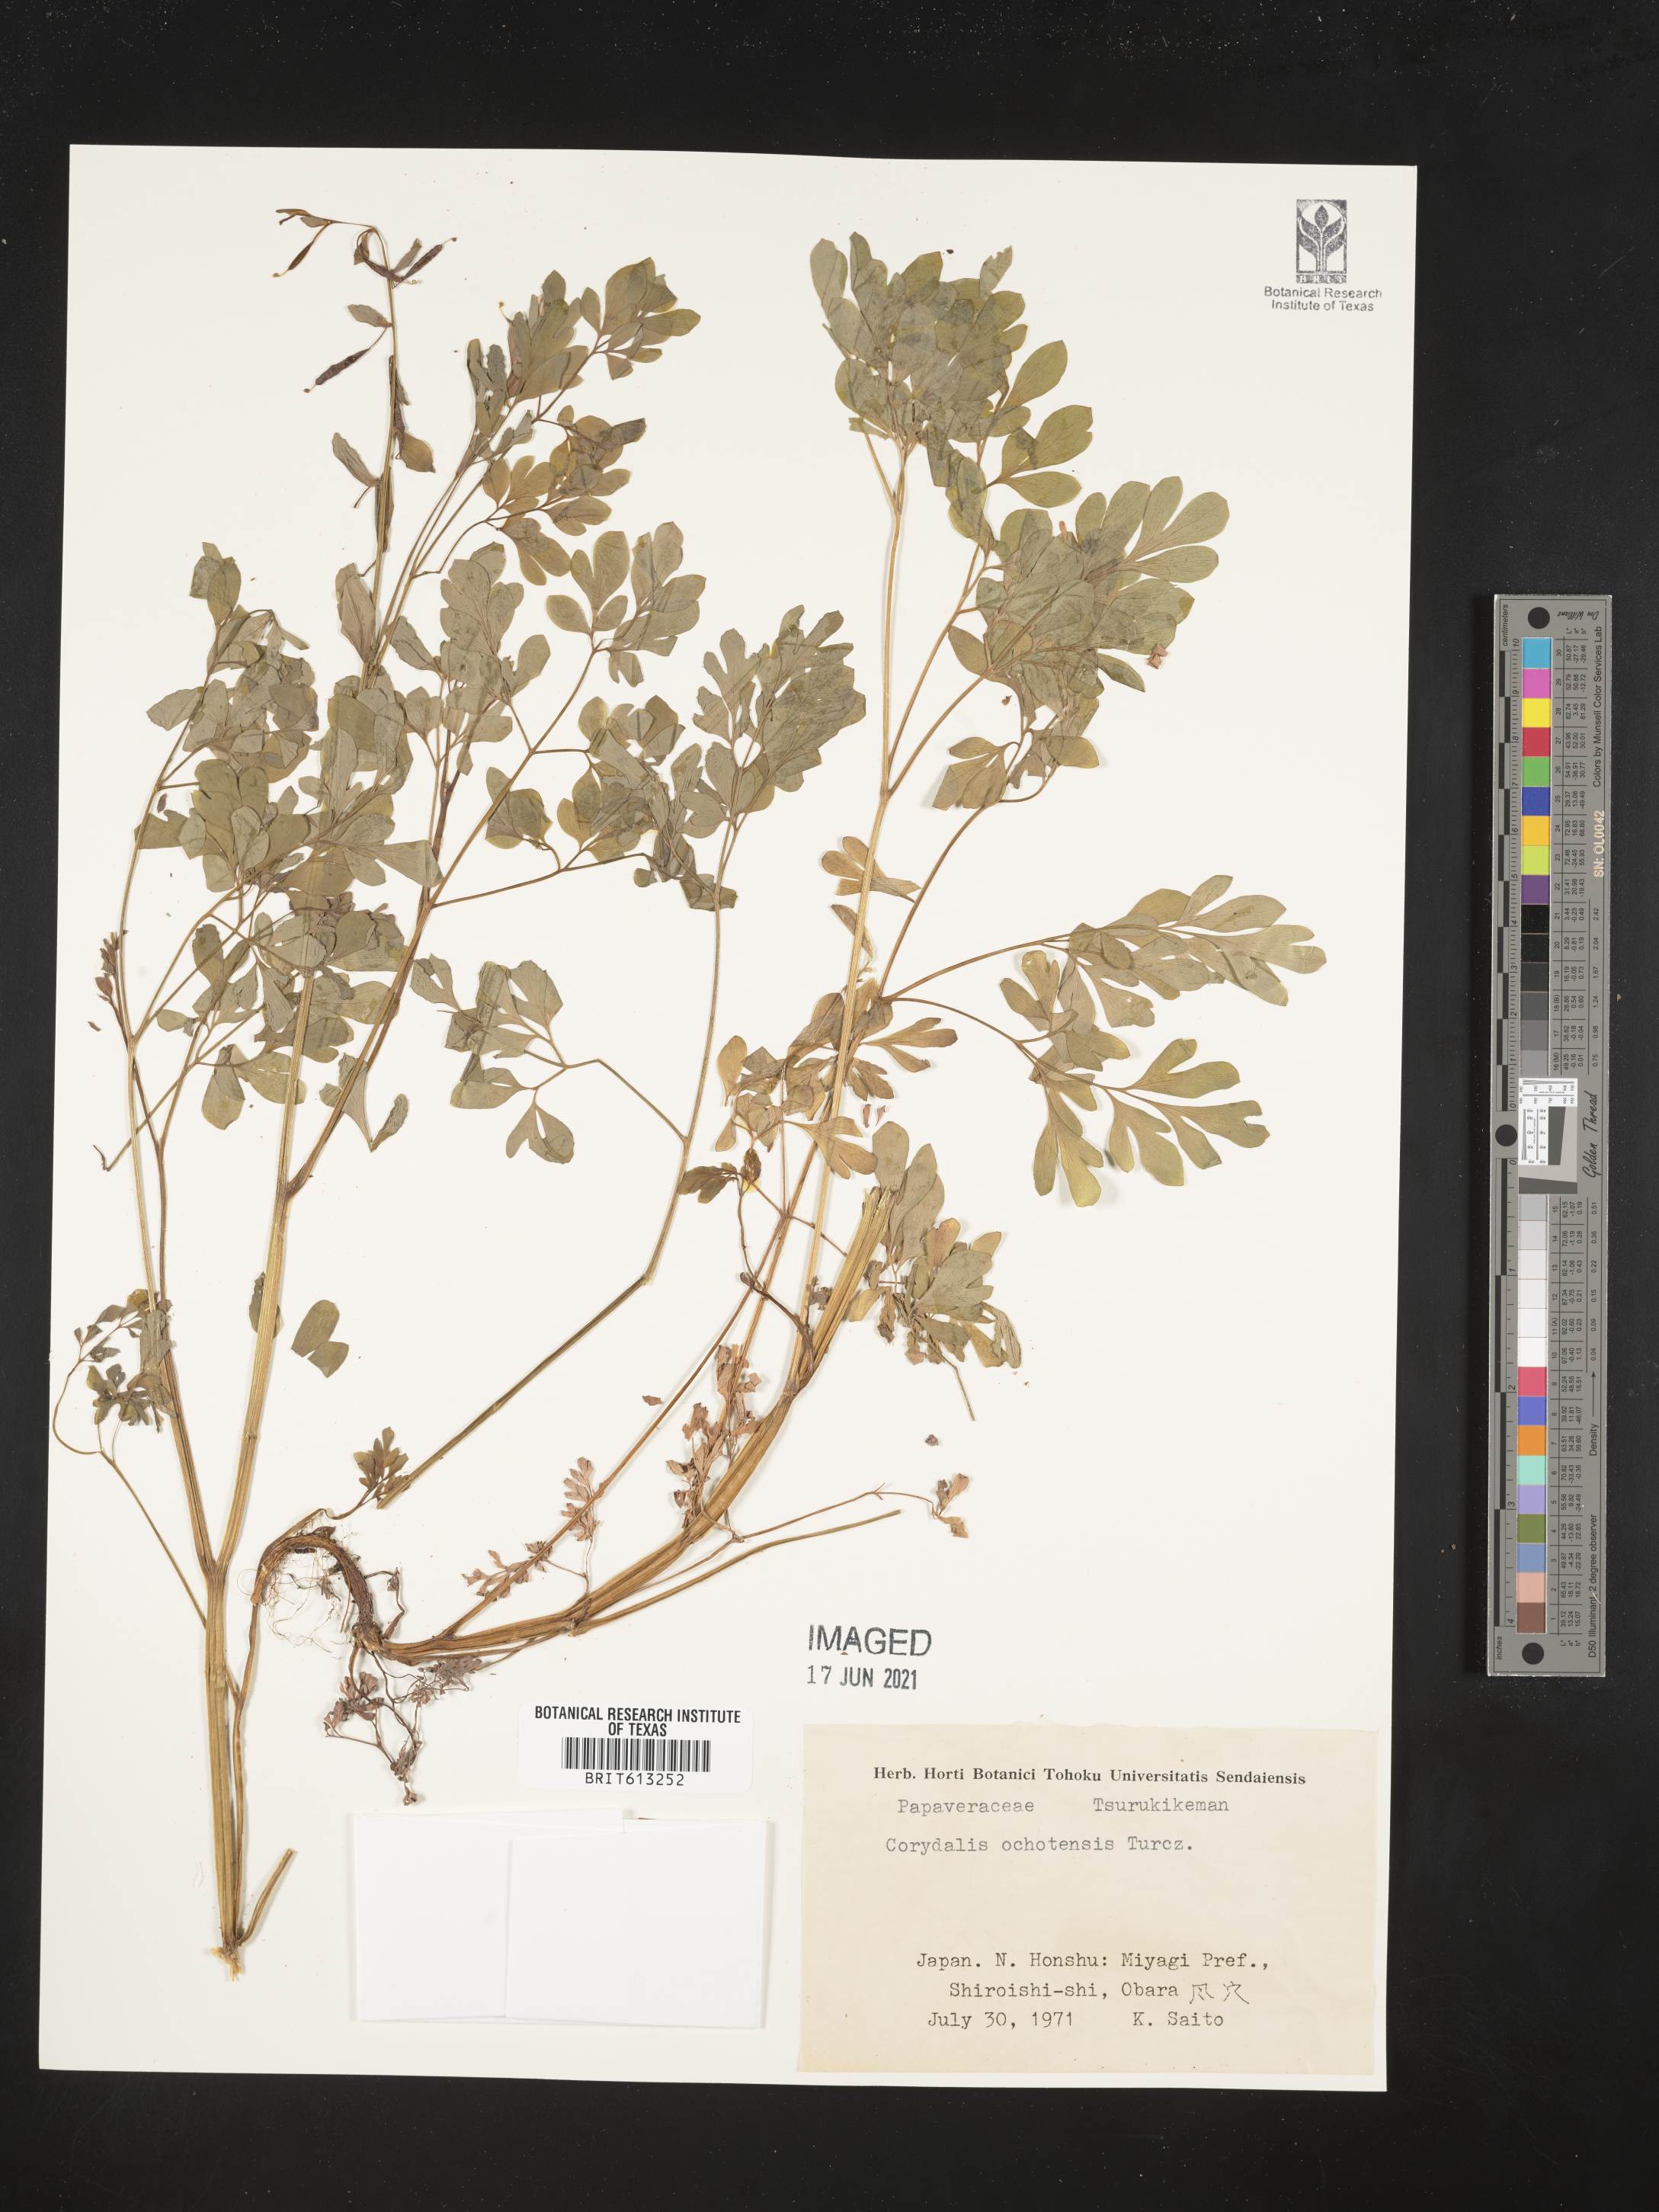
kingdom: Plantae
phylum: Tracheophyta
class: Magnoliopsida
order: Ranunculales
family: Papaveraceae
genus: Corydalis
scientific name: Corydalis ochotensis
